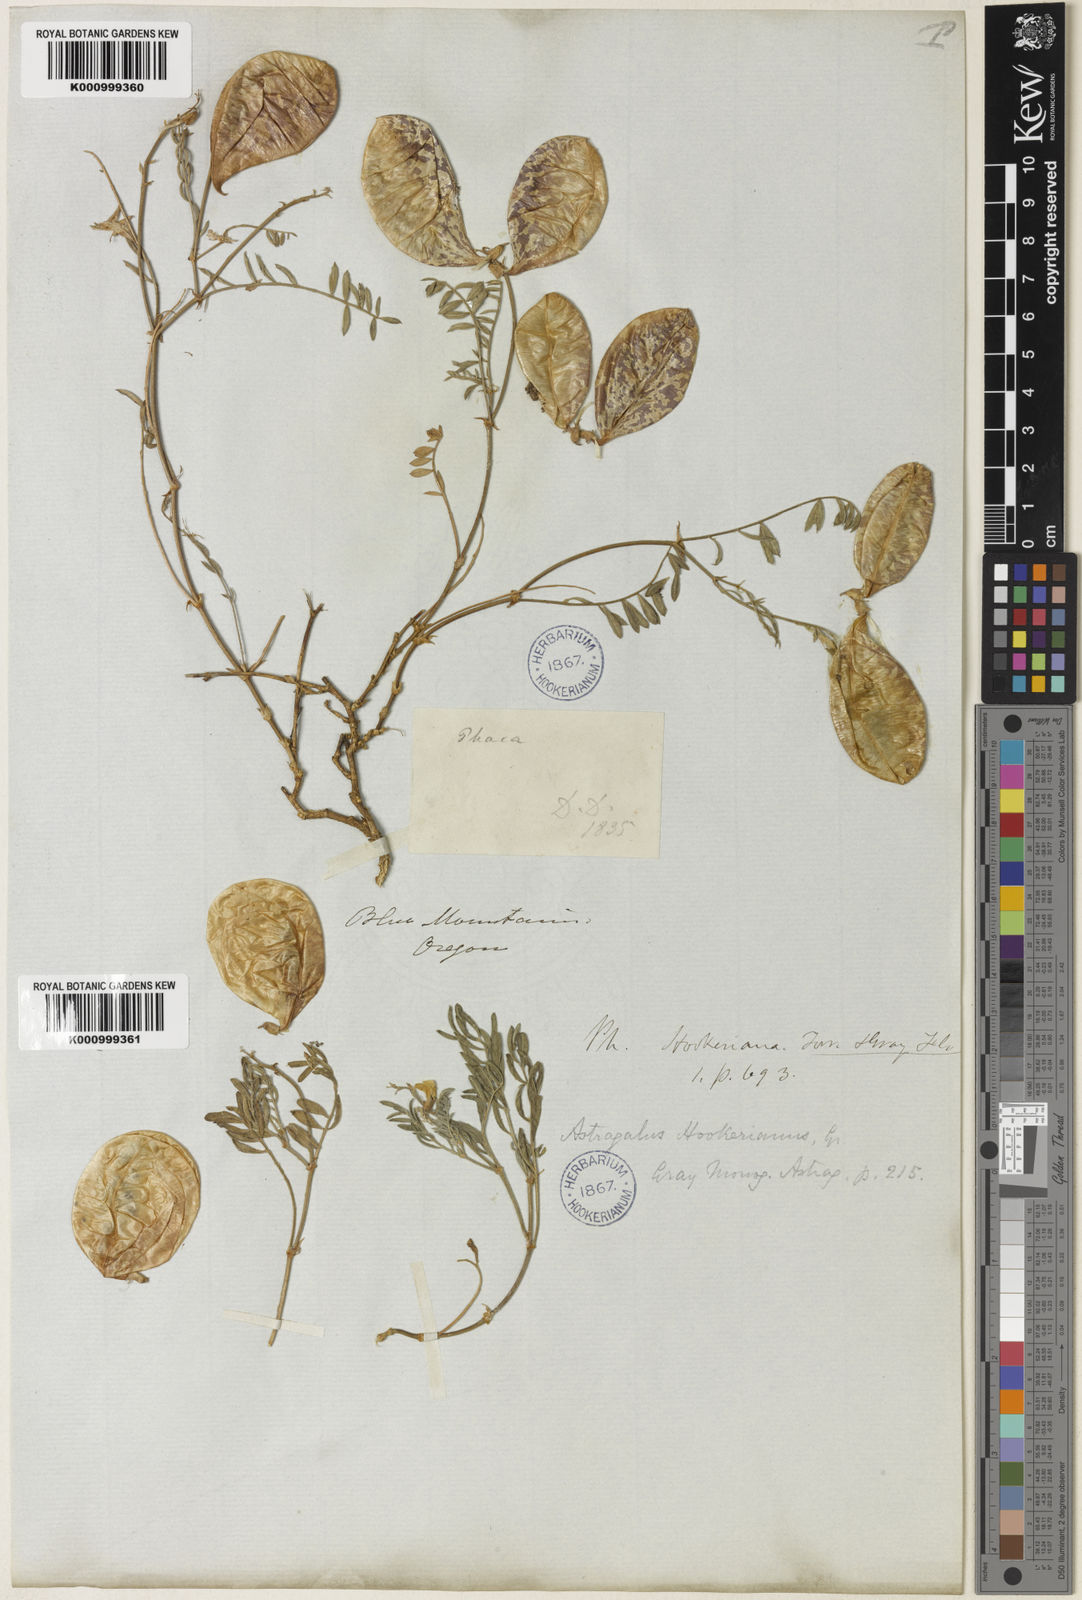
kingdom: Plantae
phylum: Tracheophyta
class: Magnoliopsida
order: Fabales
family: Fabaceae
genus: Astragalus
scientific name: Astragalus whitneyi
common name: Balloonpod milkvetch
